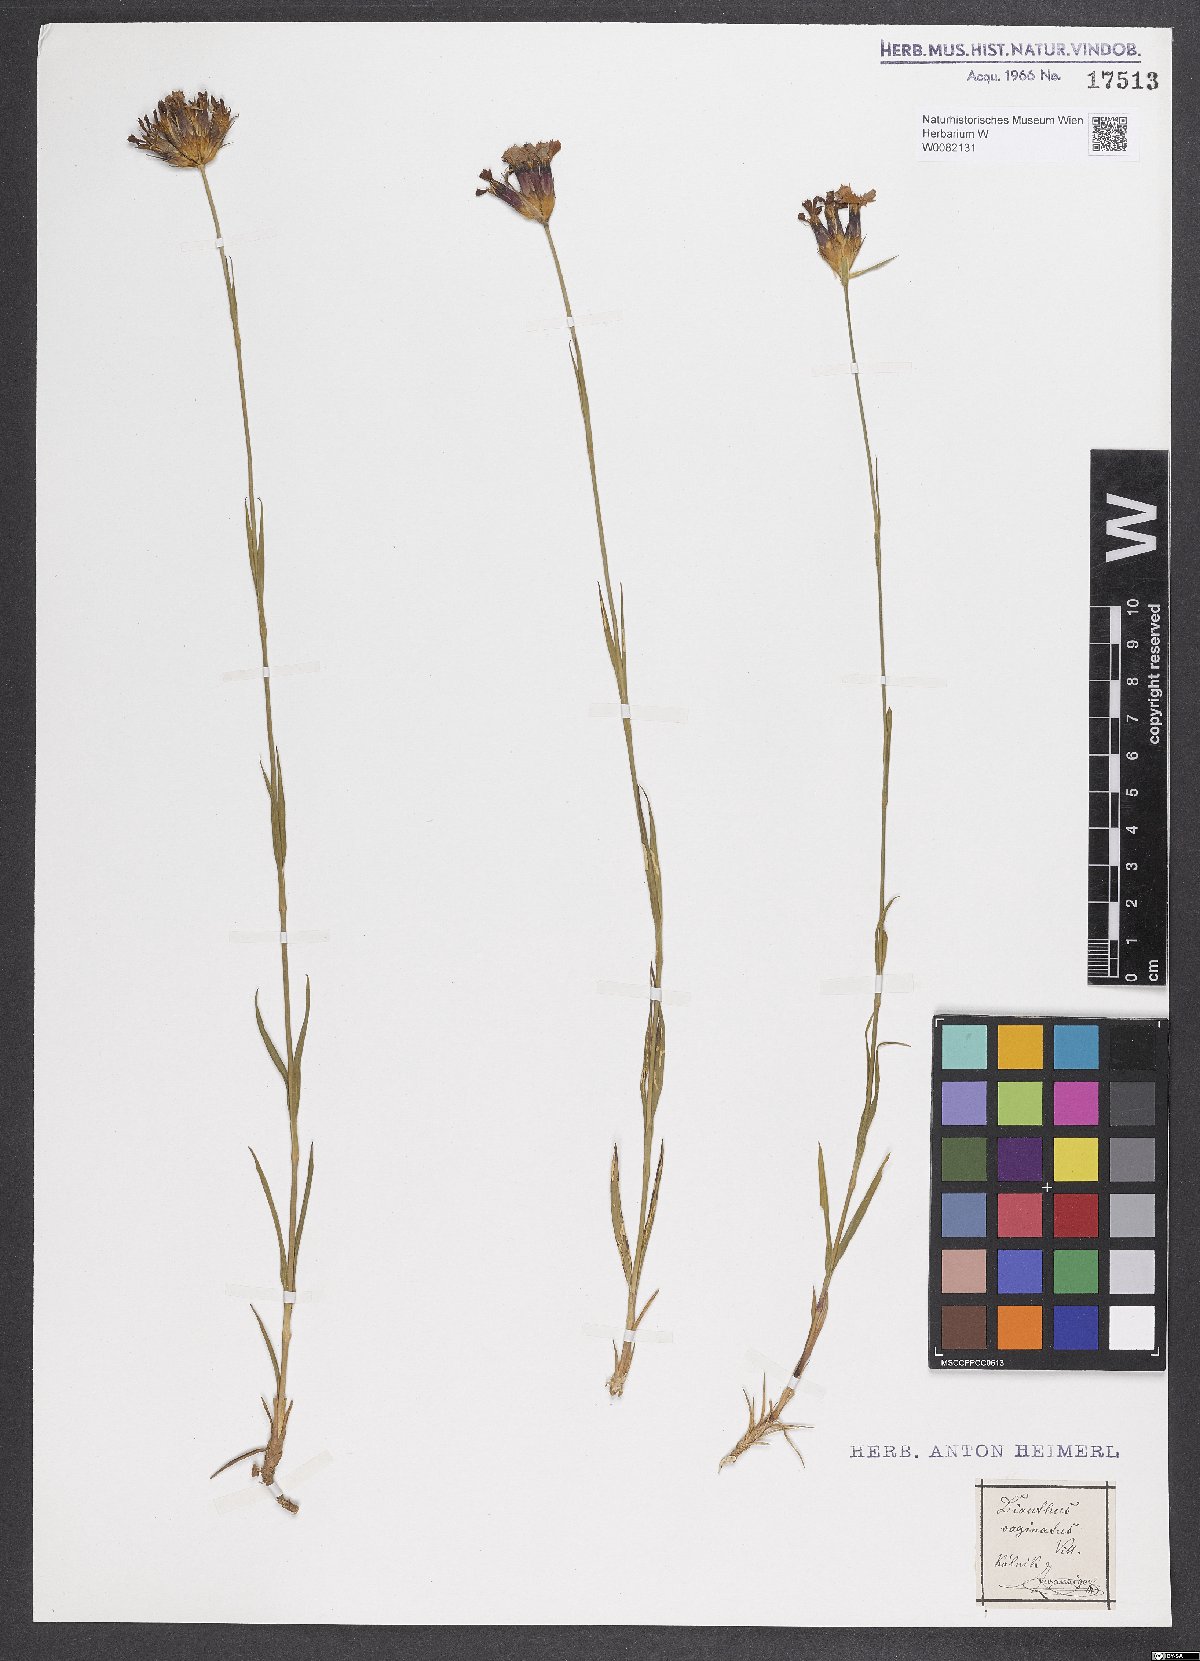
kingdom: Plantae
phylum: Tracheophyta
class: Magnoliopsida
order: Caryophyllales
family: Caryophyllaceae
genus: Dianthus
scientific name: Dianthus carthusianorum
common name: Carthusian pink
